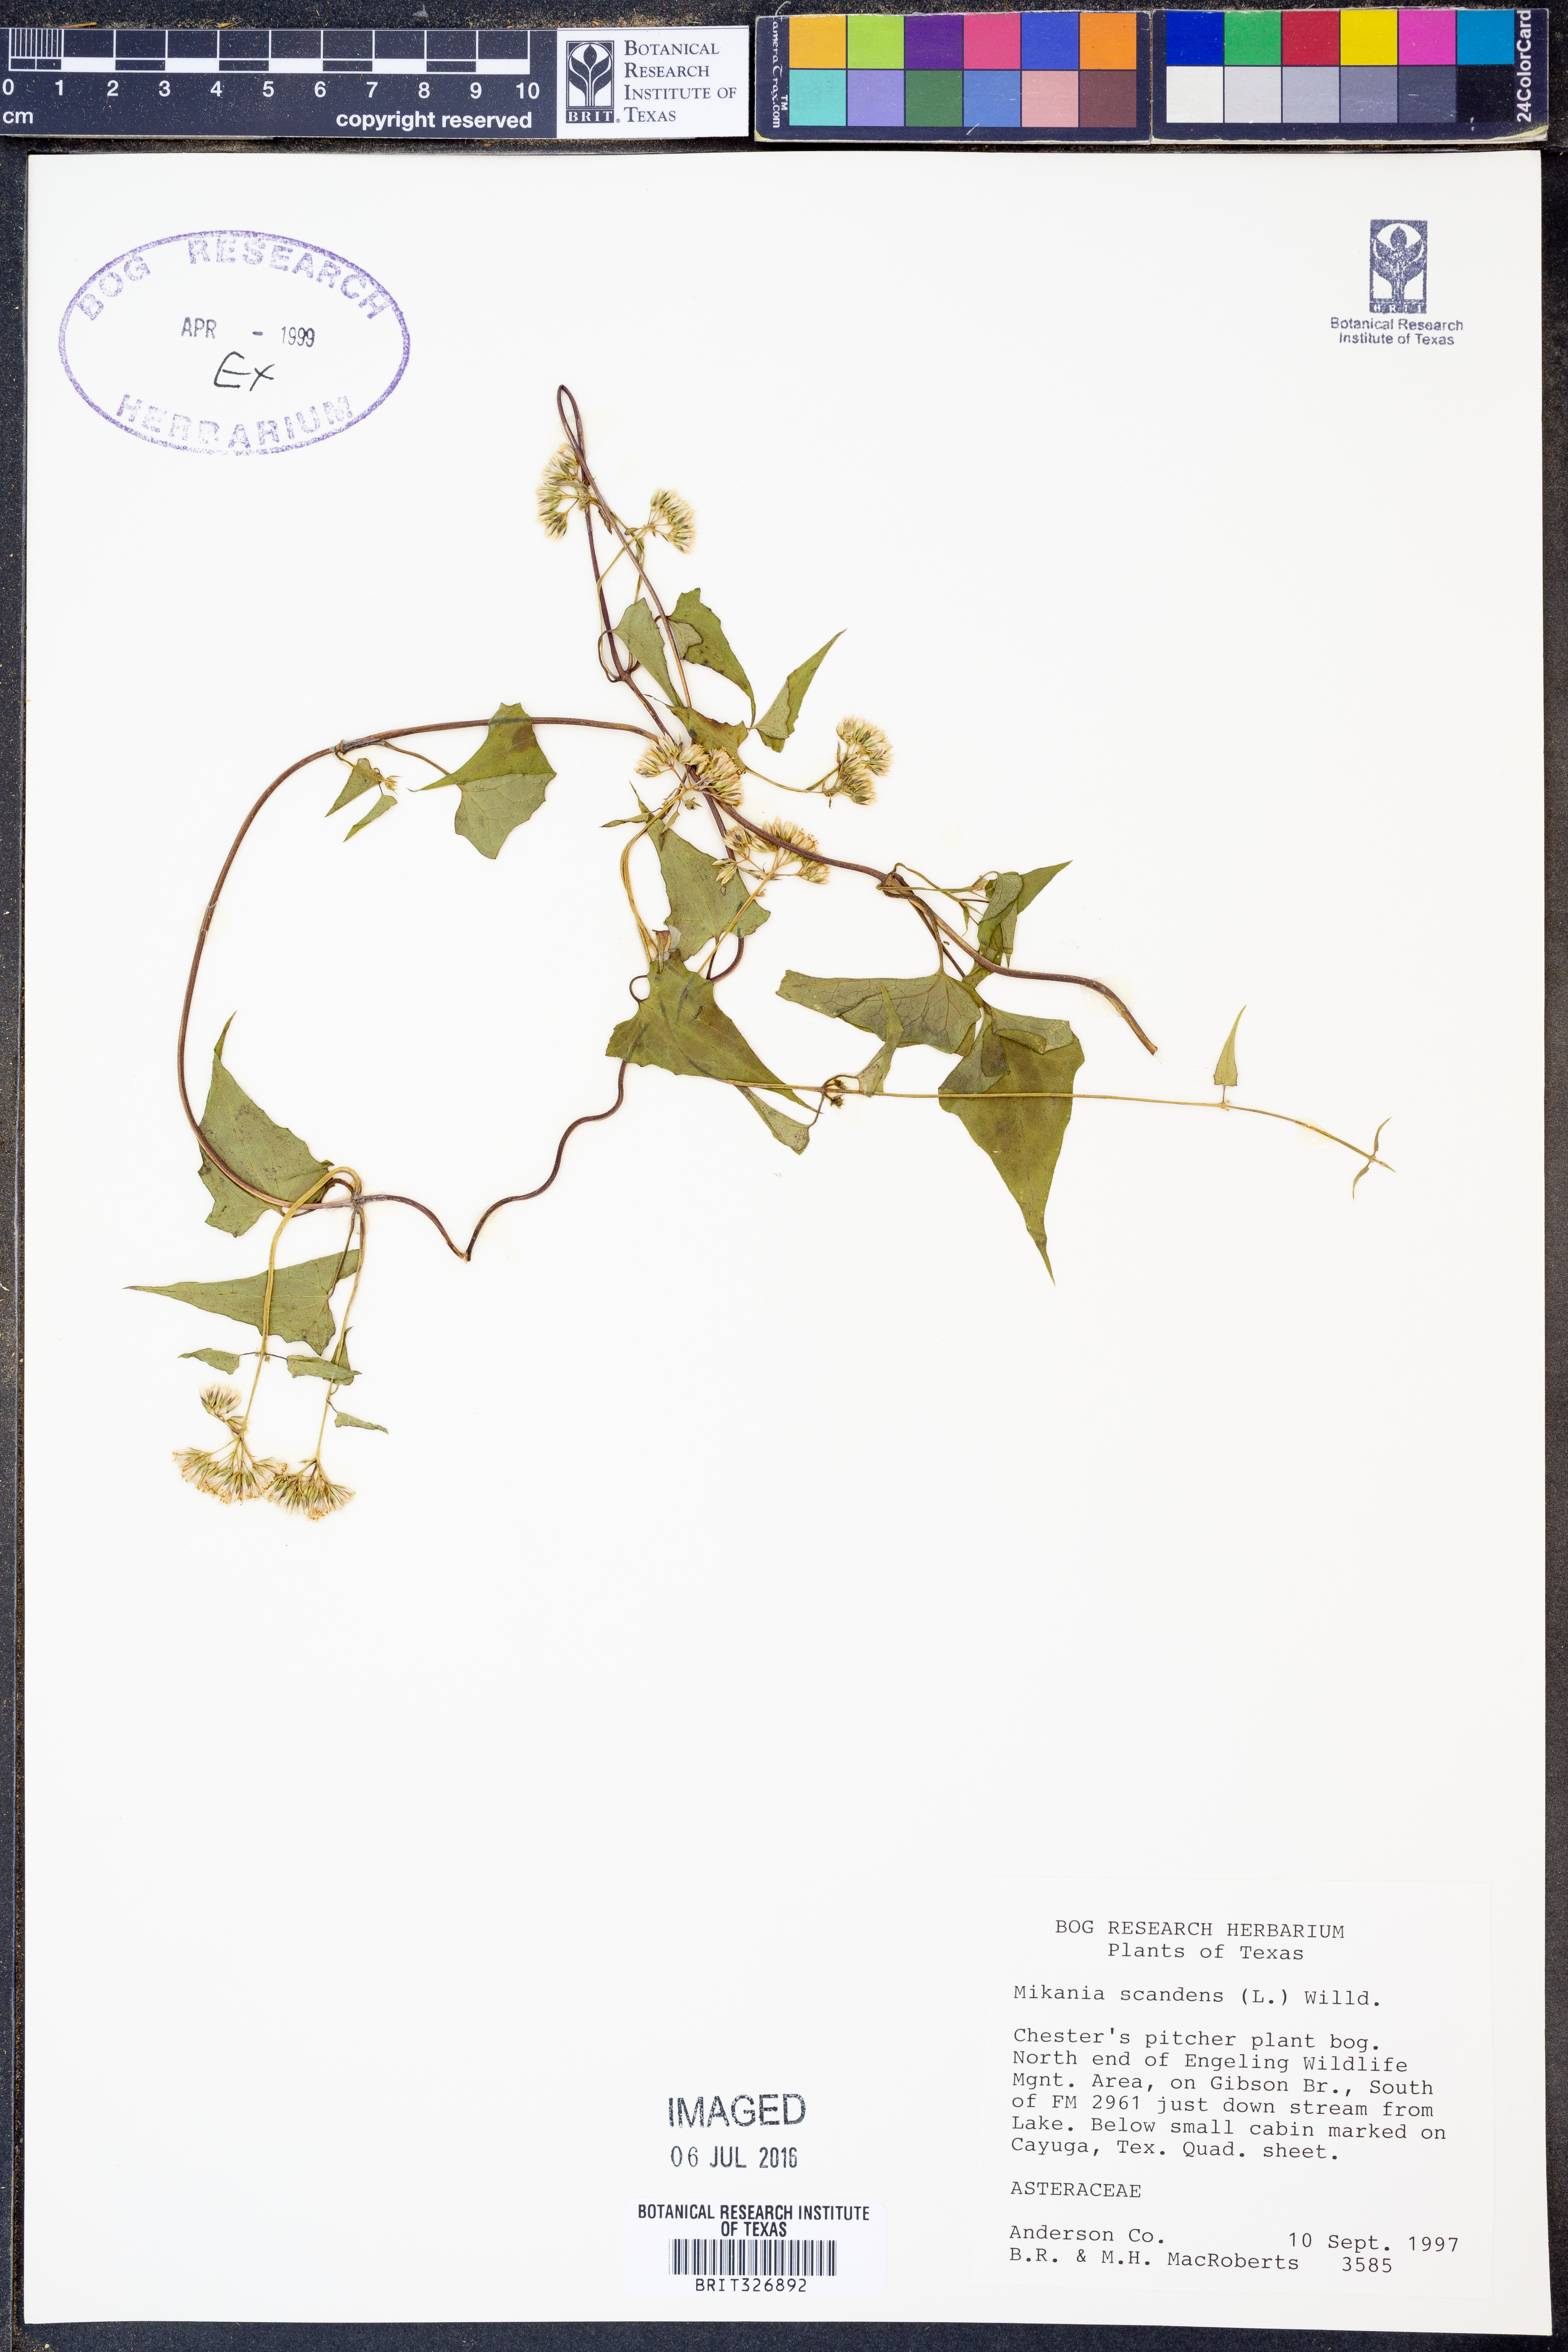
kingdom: Plantae
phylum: Tracheophyta
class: Magnoliopsida
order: Asterales
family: Asteraceae
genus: Mikania
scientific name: Mikania scandens
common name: Climbing hempvine
